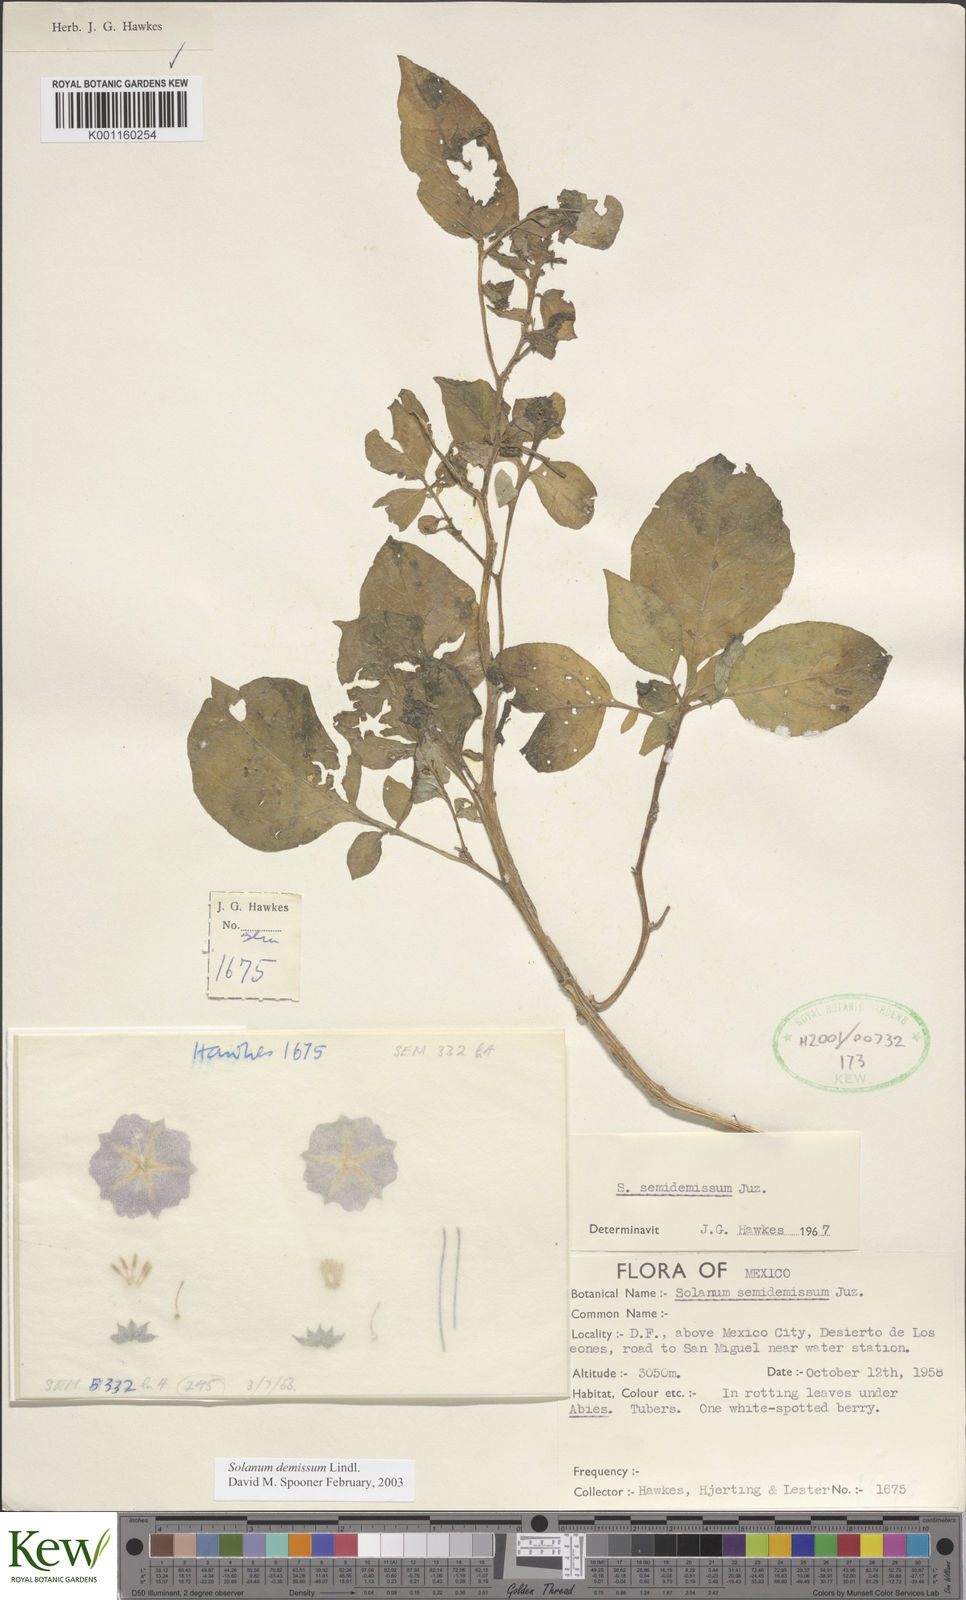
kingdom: Plantae
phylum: Tracheophyta
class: Magnoliopsida
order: Solanales
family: Solanaceae
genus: Solanum
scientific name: Solanum demissum
